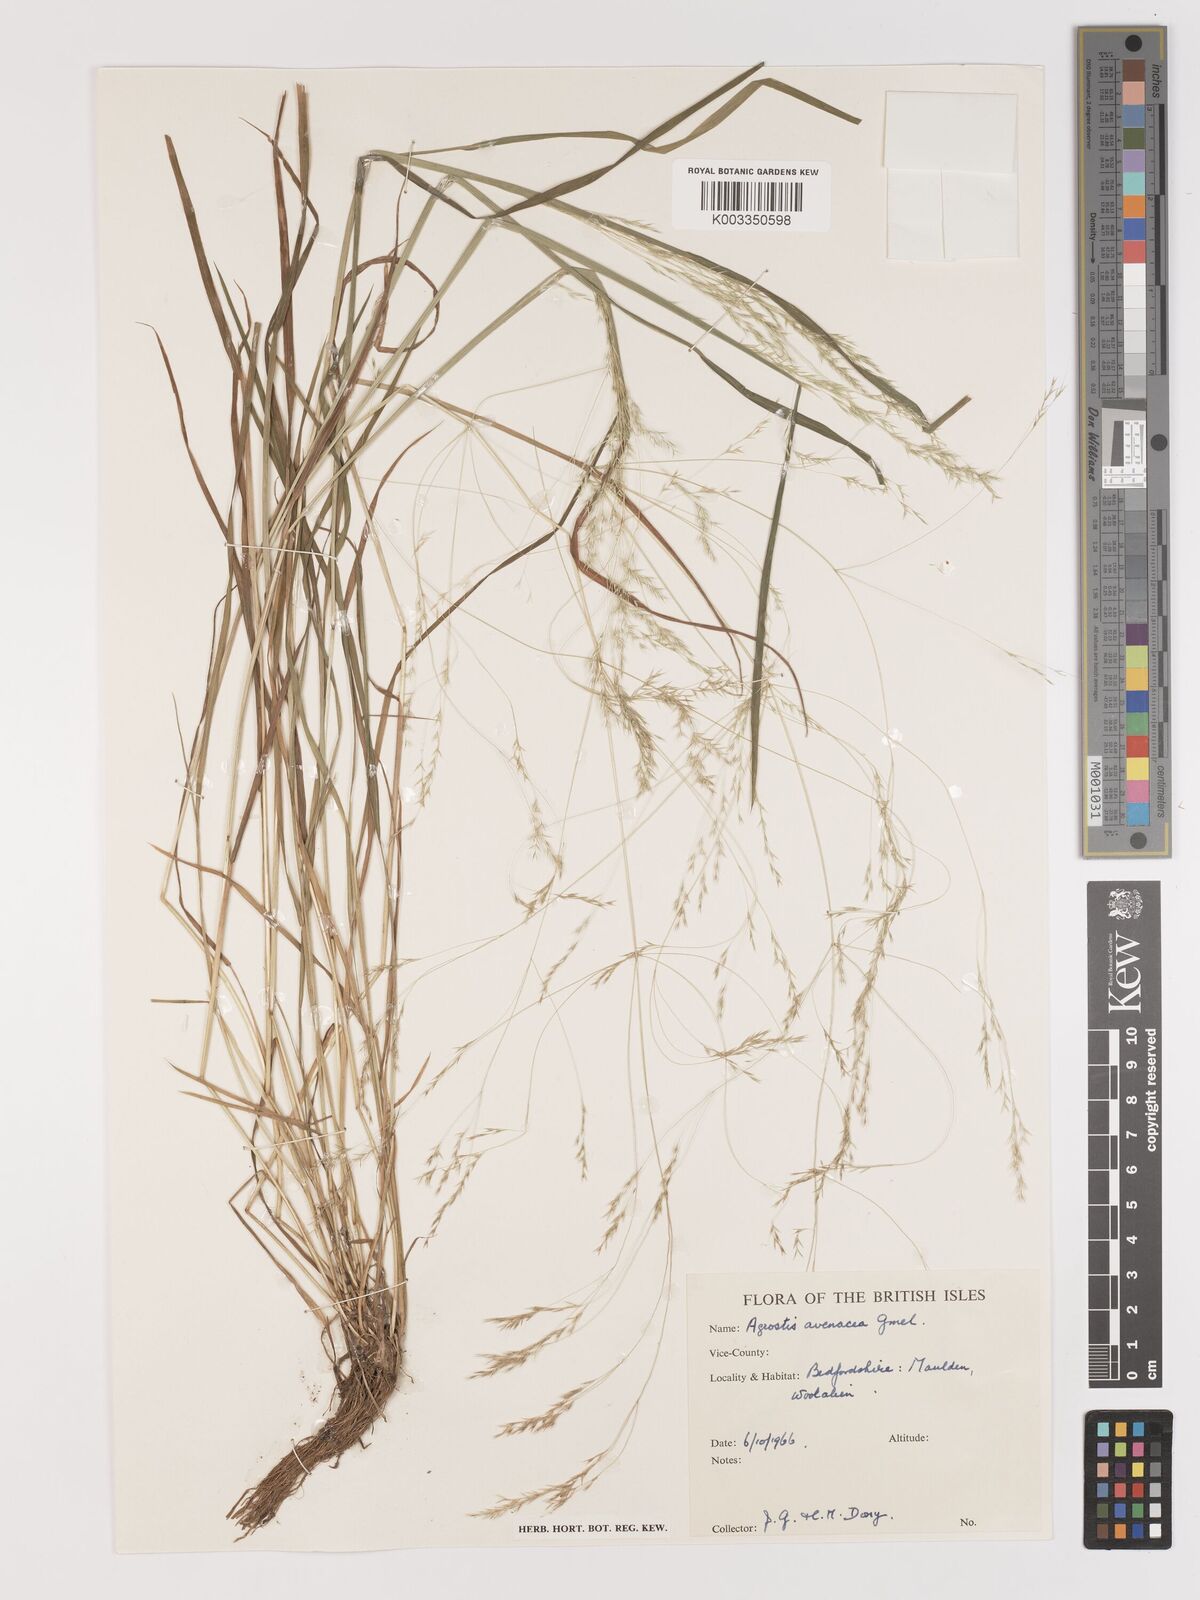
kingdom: Plantae
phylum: Tracheophyta
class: Liliopsida
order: Poales
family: Poaceae
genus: Lachnagrostis
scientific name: Lachnagrostis filiformis
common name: Bentgrass
